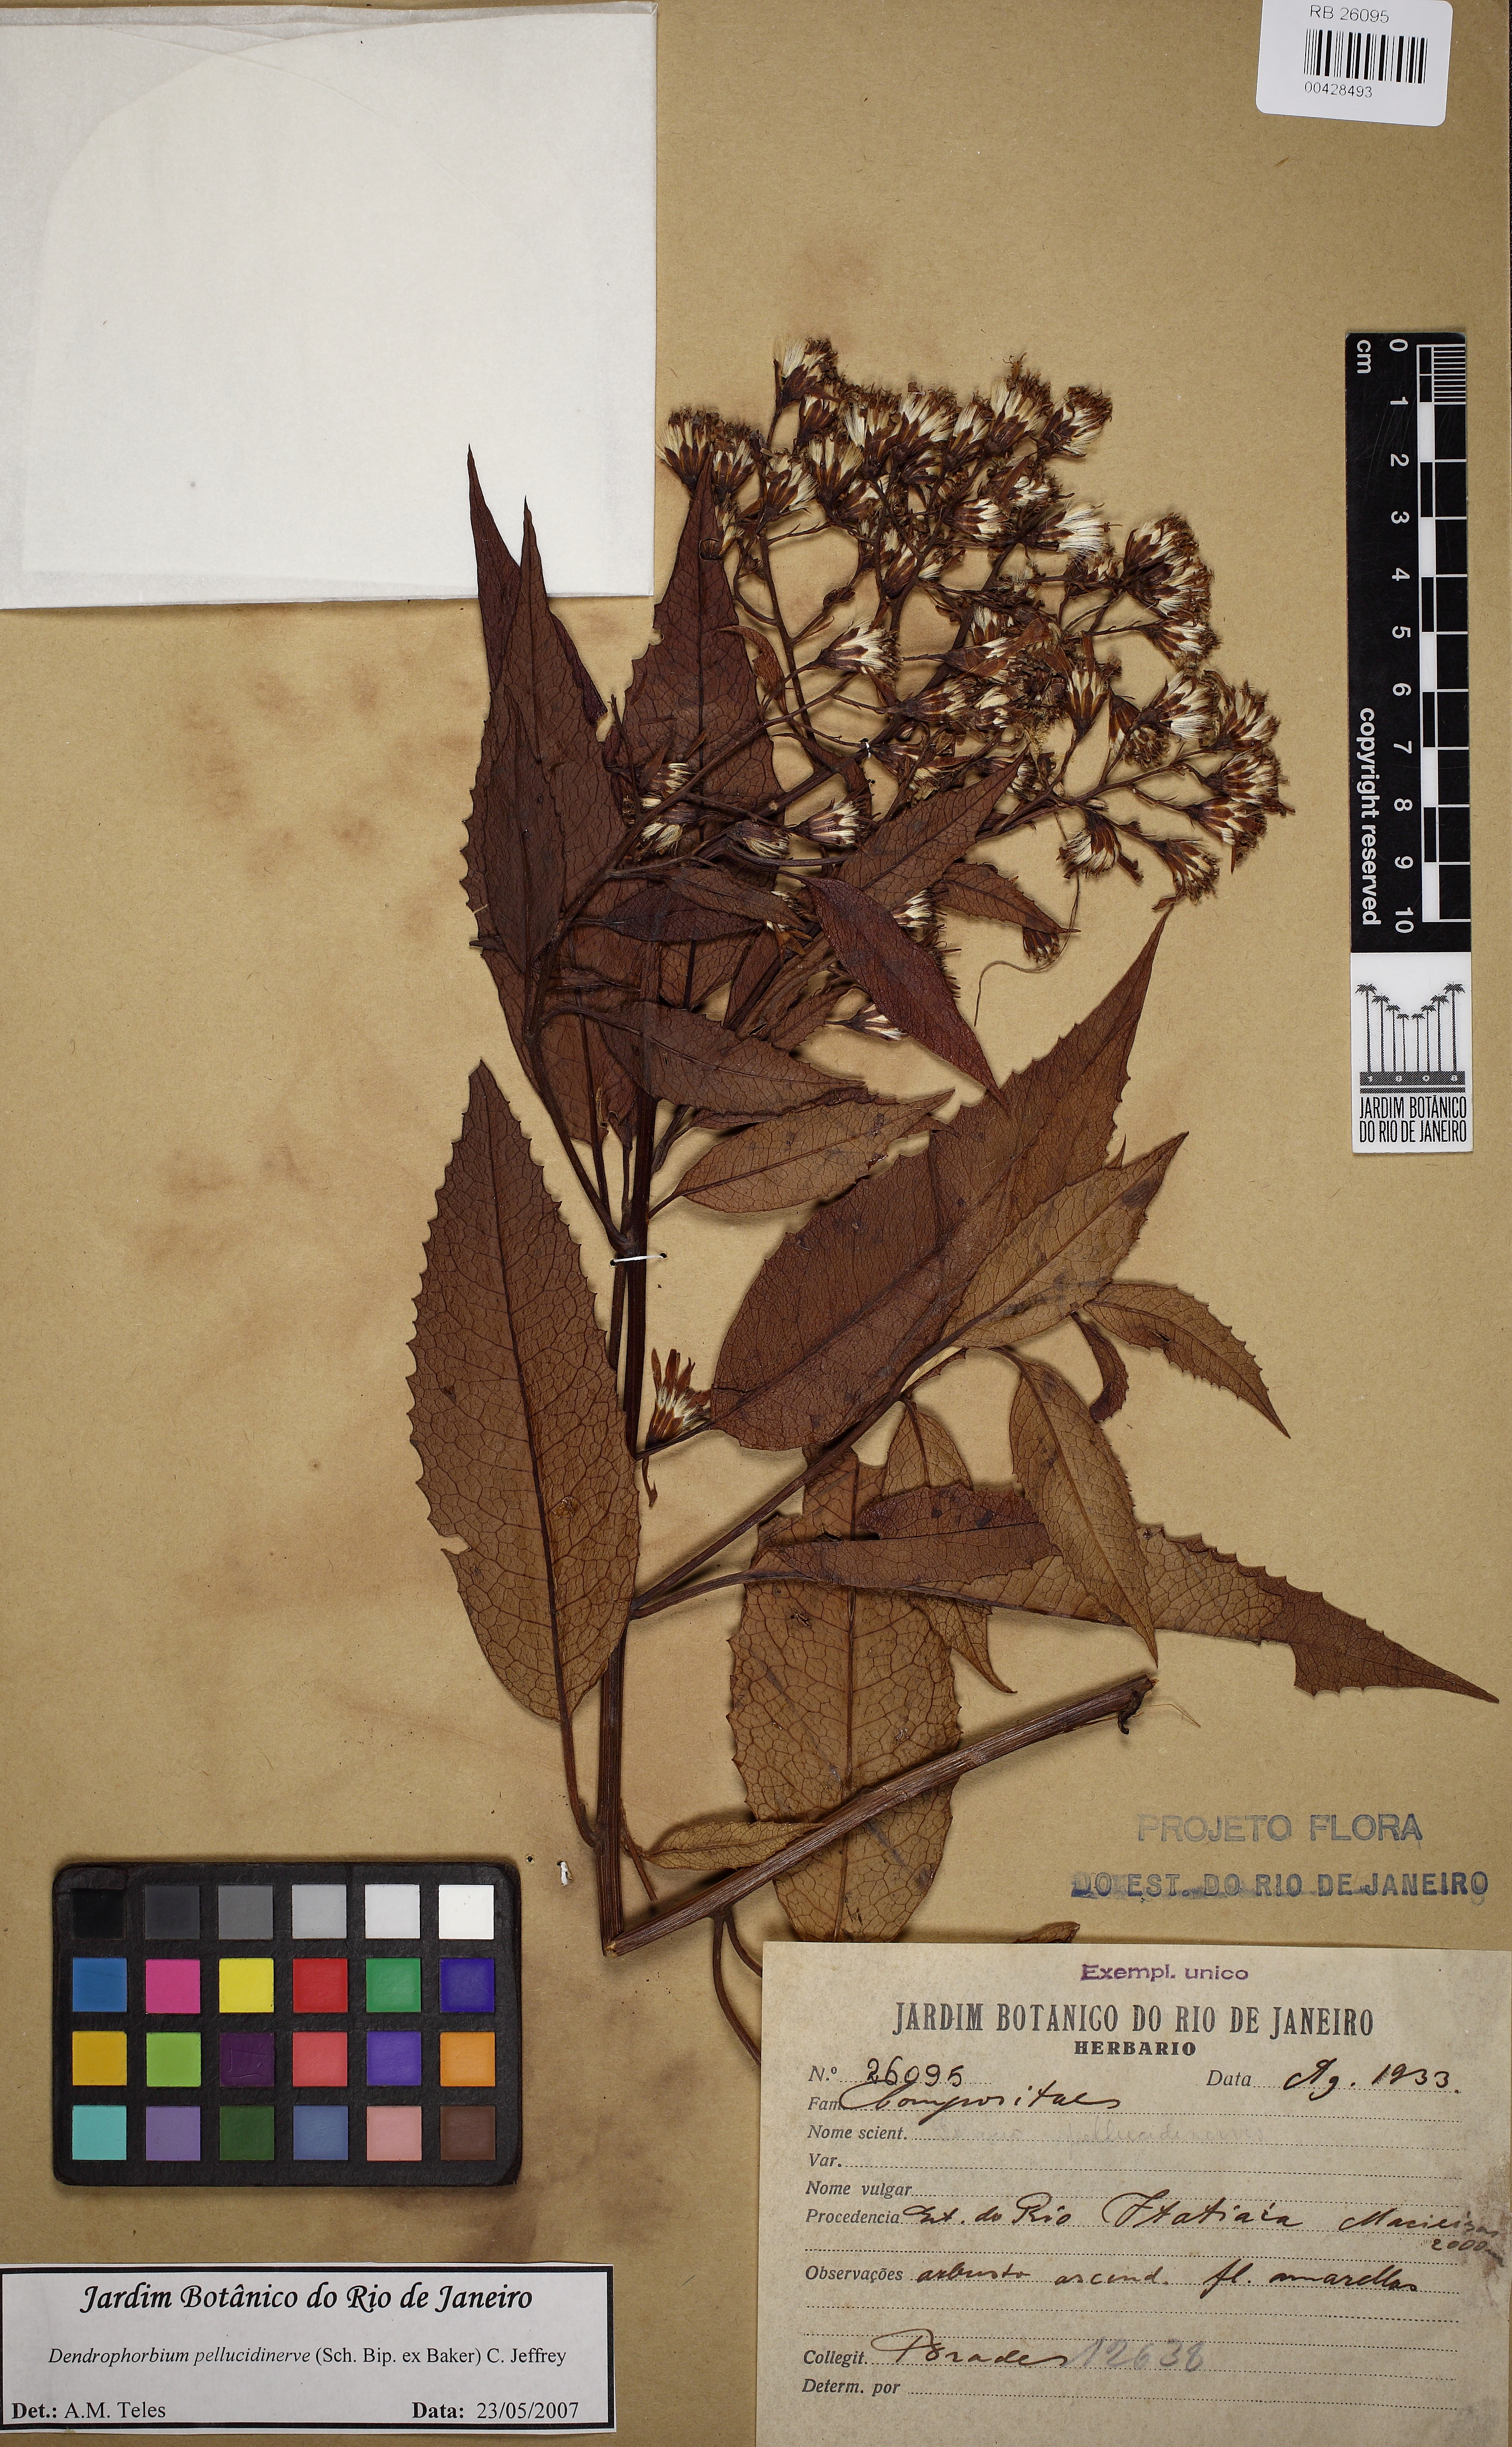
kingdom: Plantae
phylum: Tracheophyta
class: Magnoliopsida
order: Asterales
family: Asteraceae
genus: Dendrophorbium
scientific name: Dendrophorbium pellucidinerve
